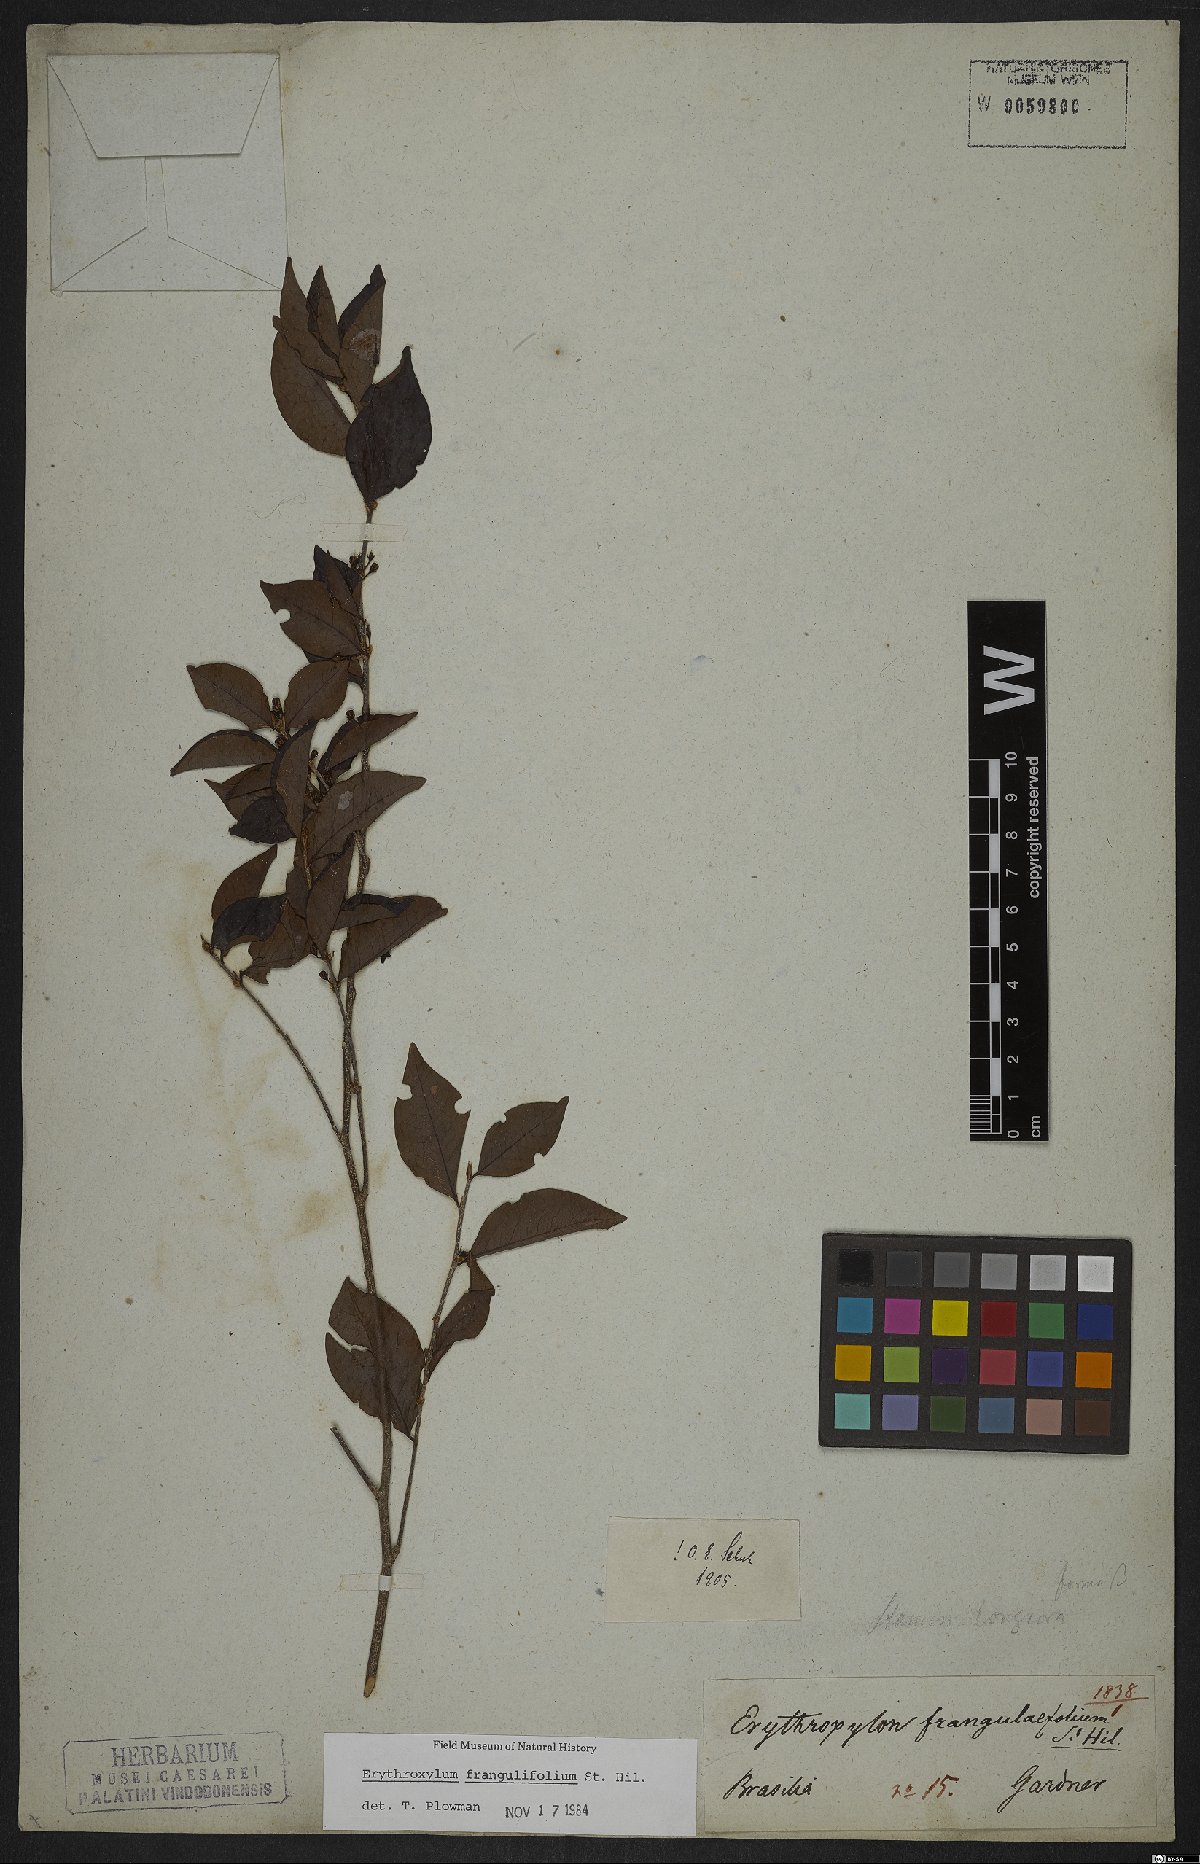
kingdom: Plantae
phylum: Tracheophyta
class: Magnoliopsida
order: Sapindales
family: Sapindaceae
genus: Sapindus
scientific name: Sapindus saponaria
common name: Wingleaf soapberry
